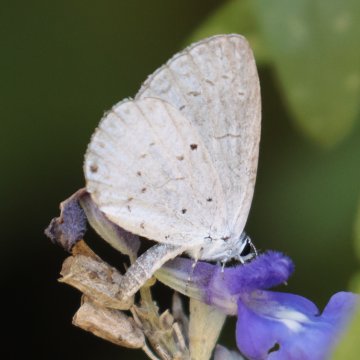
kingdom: Animalia
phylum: Arthropoda
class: Insecta
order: Lepidoptera
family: Lycaenidae
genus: Cyaniris
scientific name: Cyaniris neglecta
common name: Summer Azure
